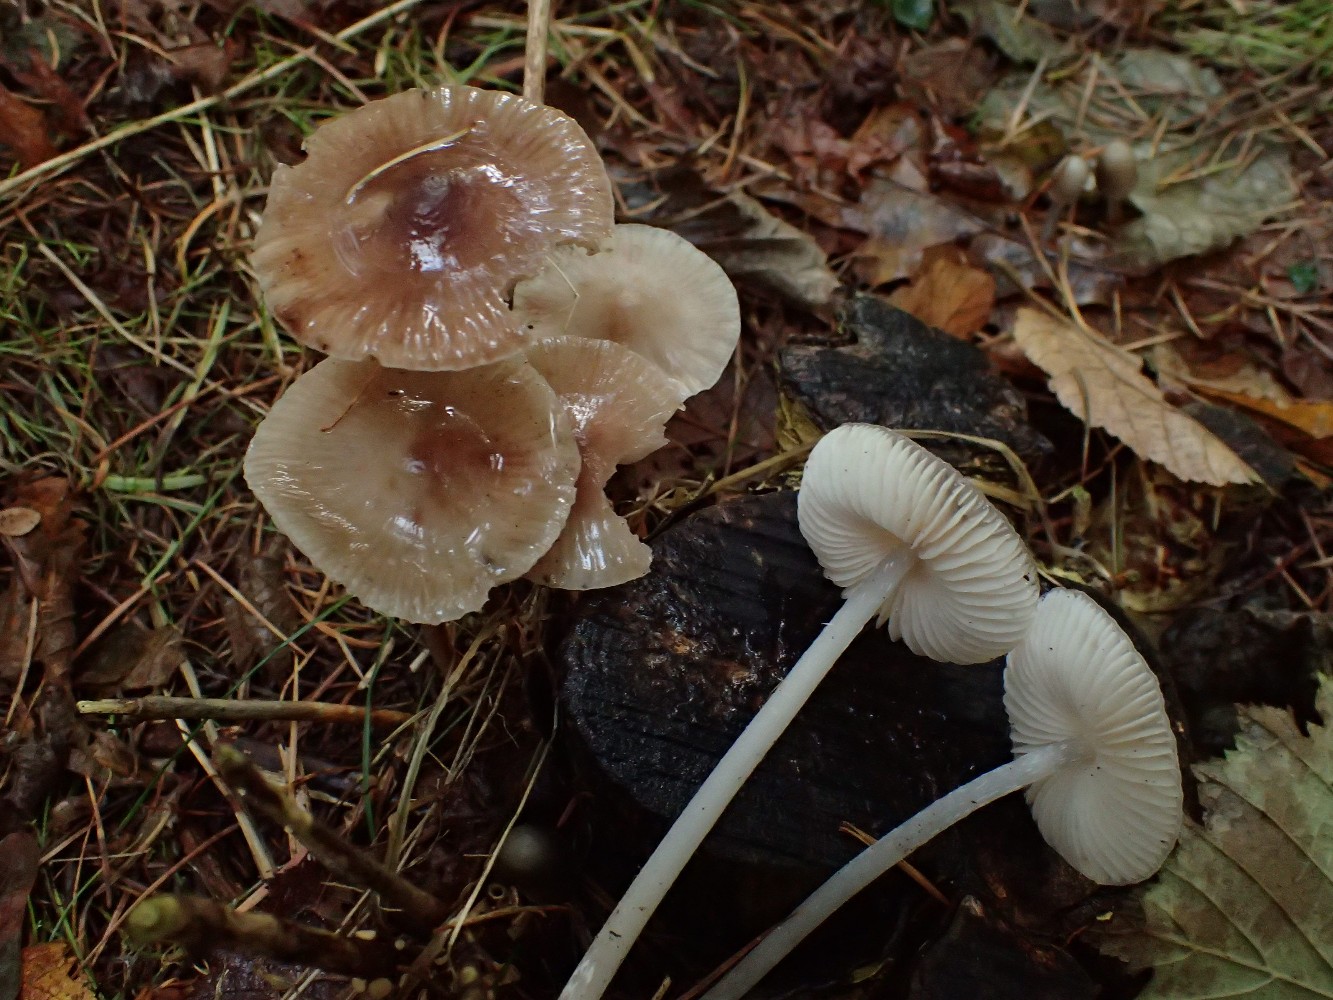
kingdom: Fungi
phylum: Basidiomycota
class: Agaricomycetes
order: Agaricales
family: Mycenaceae
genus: Mycena
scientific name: Mycena polygramma
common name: mangestribet huesvamp
